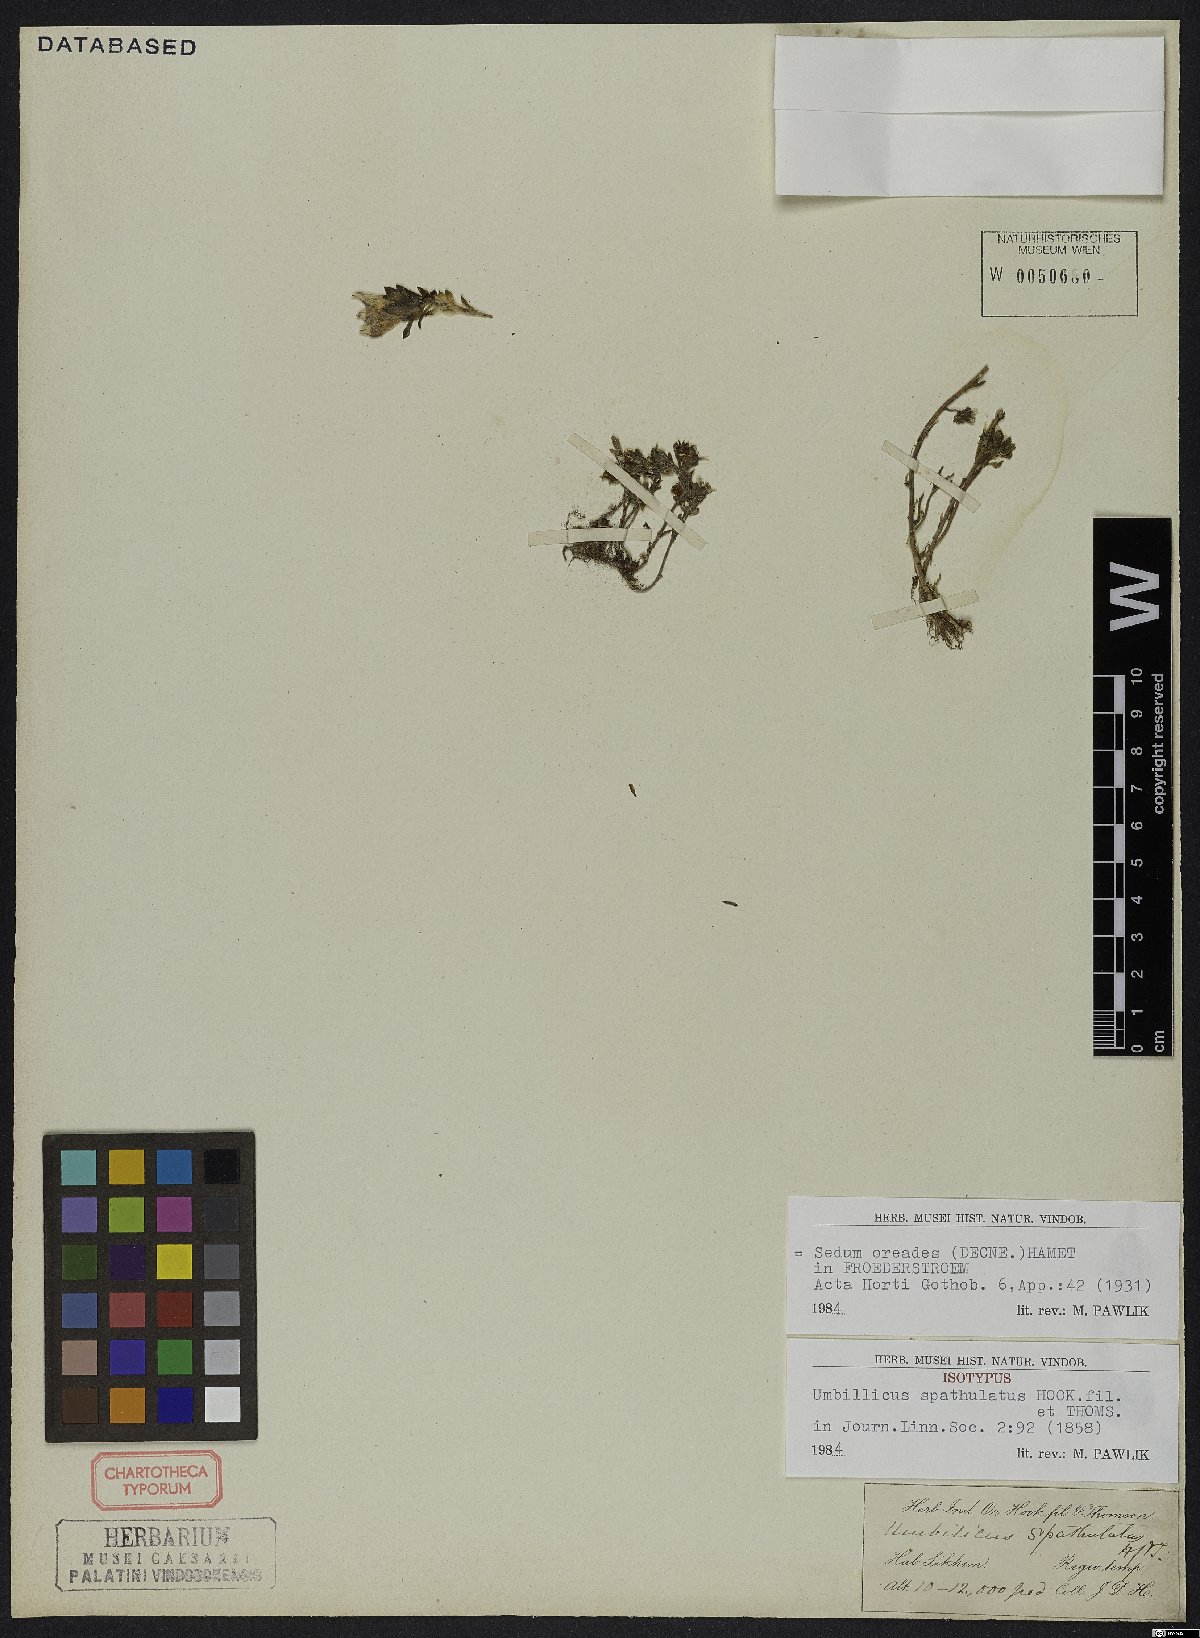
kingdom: Plantae
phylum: Tracheophyta
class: Magnoliopsida
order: Saxifragales
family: Crassulaceae
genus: Sedum
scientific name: Sedum oreades
